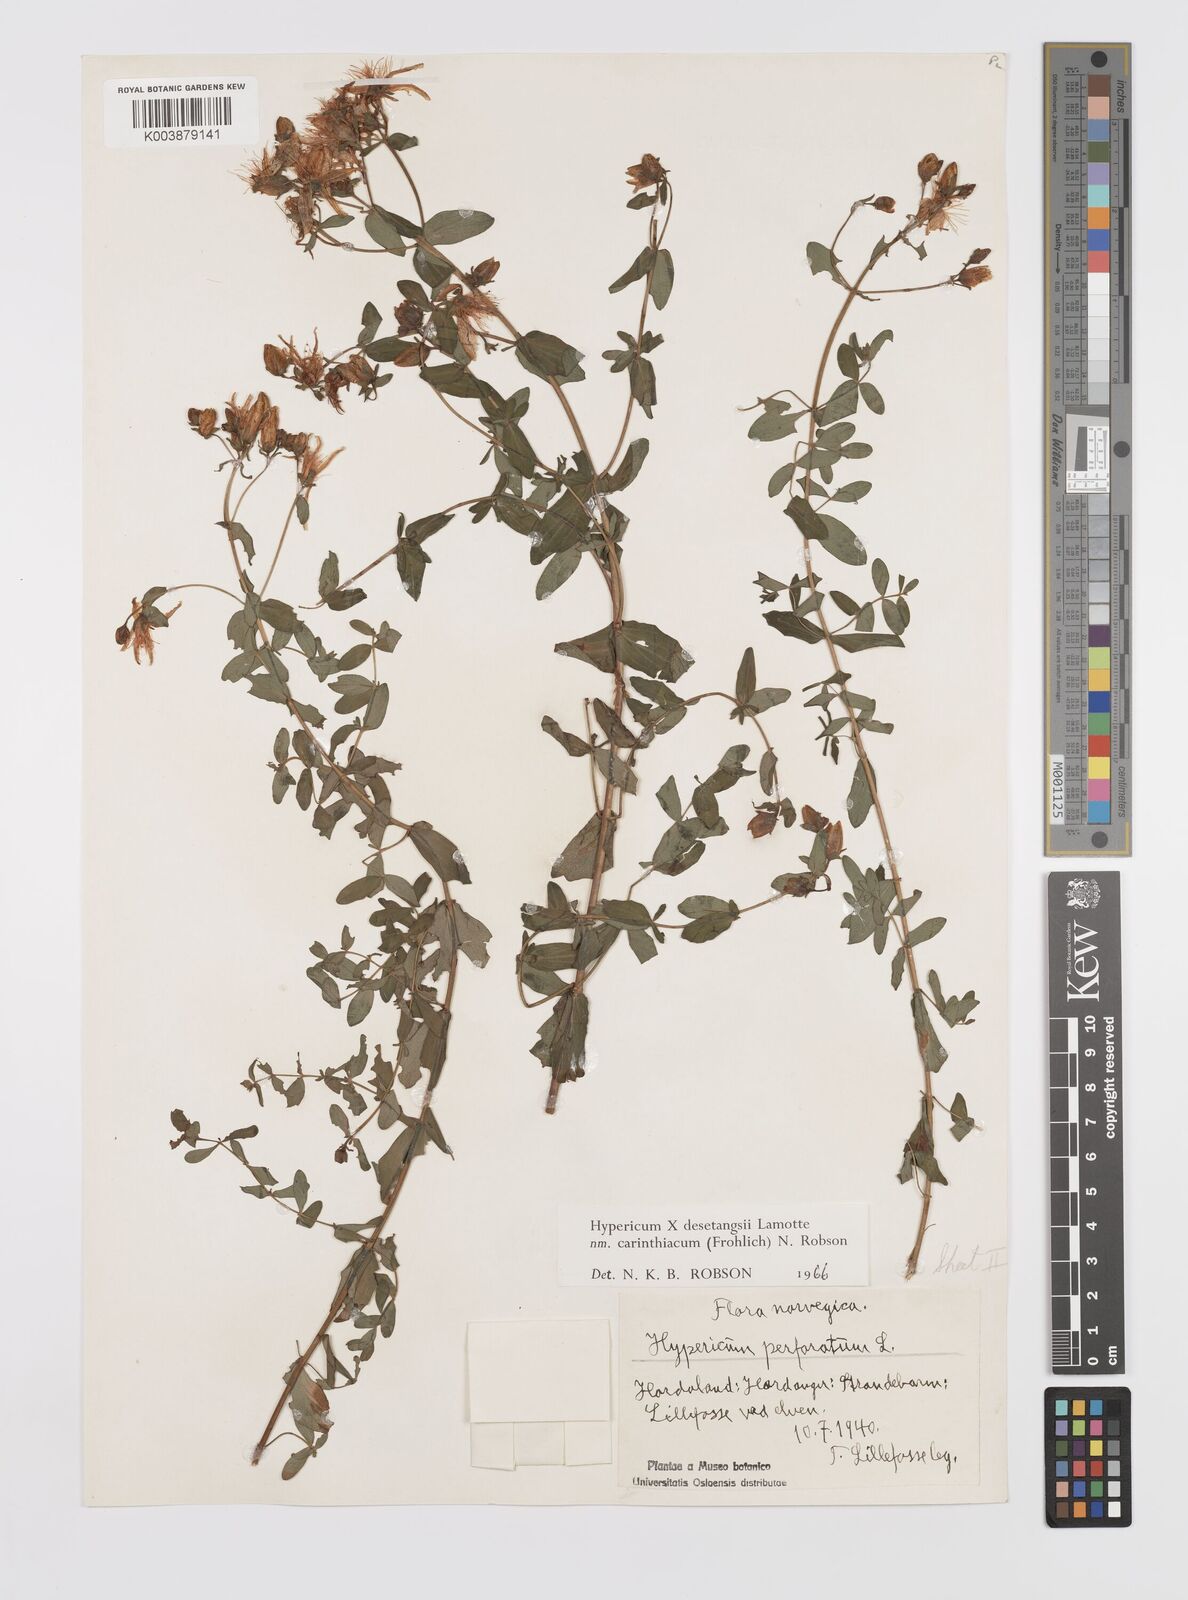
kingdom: Plantae
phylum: Tracheophyta
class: Magnoliopsida
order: Malpighiales
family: Hypericaceae
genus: Hypericum
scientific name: Hypericum maculatum
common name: Imperforate st. john's-wort
